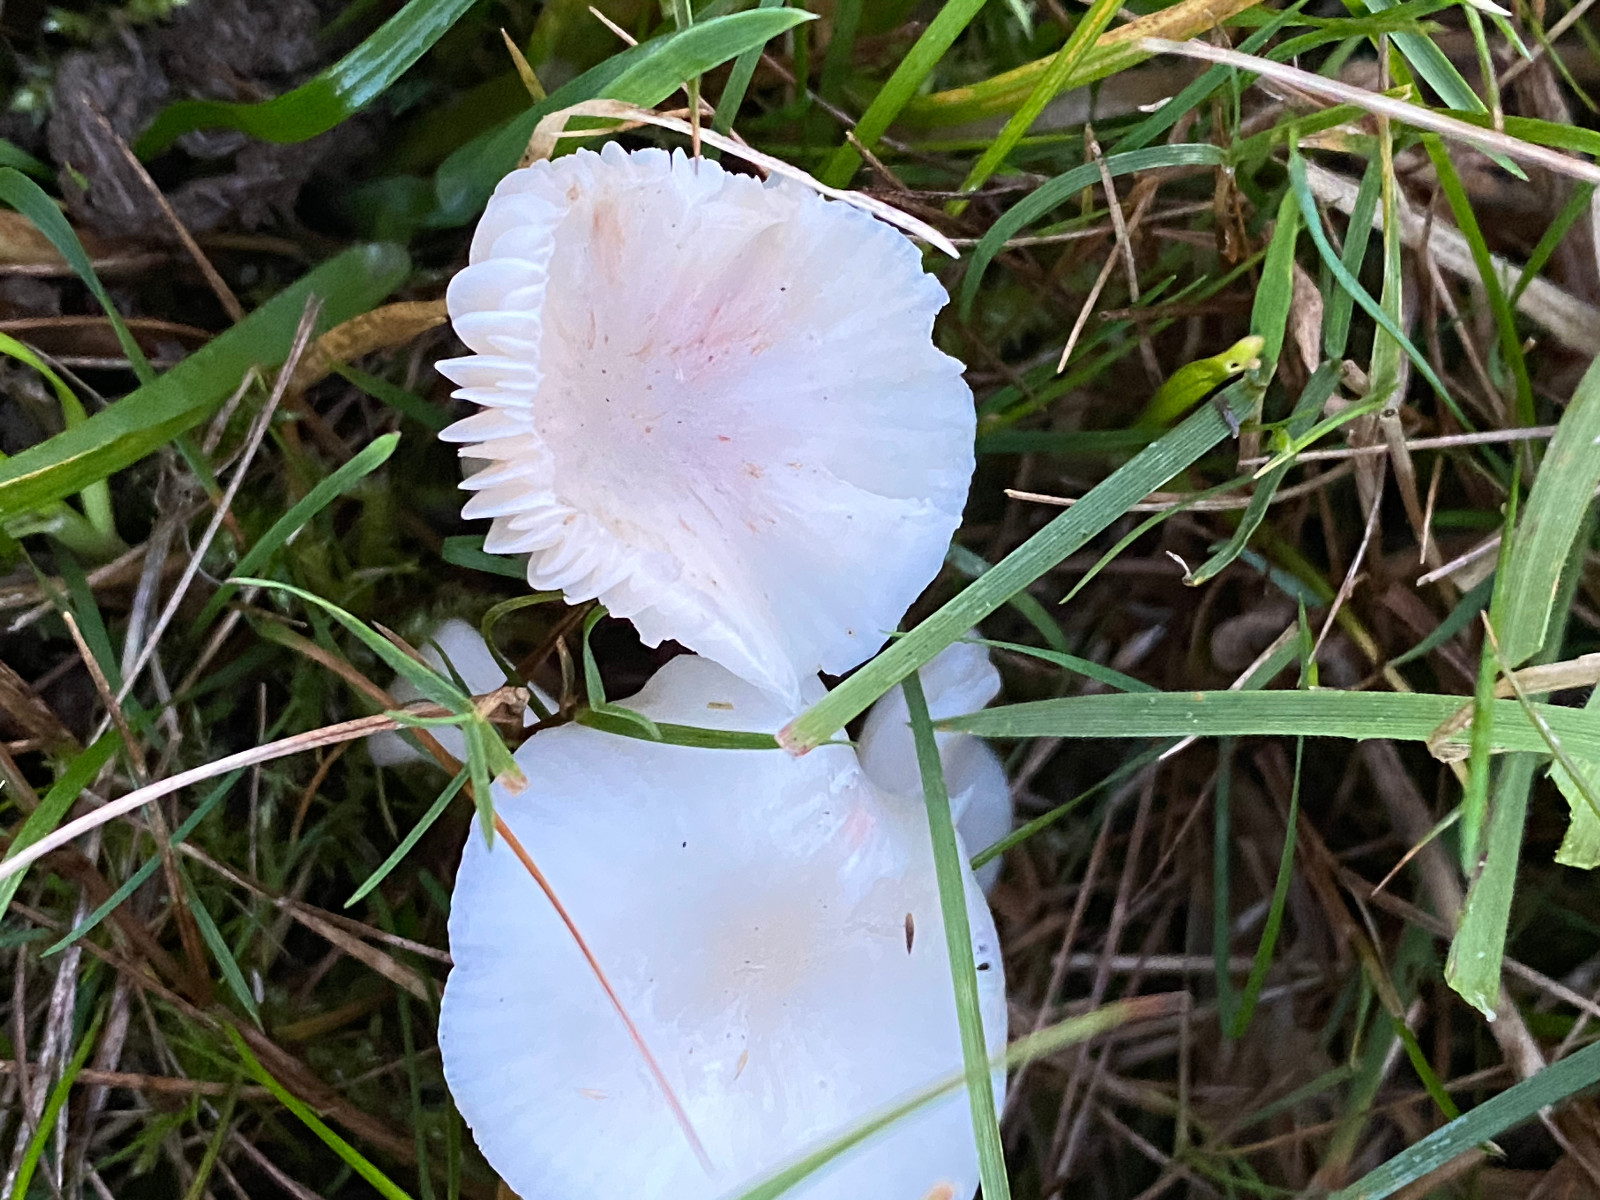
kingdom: Fungi
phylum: Basidiomycota
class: Agaricomycetes
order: Agaricales
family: Hygrophoraceae
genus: Cuphophyllus
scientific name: Cuphophyllus virgineus
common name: snehvid vokshat
